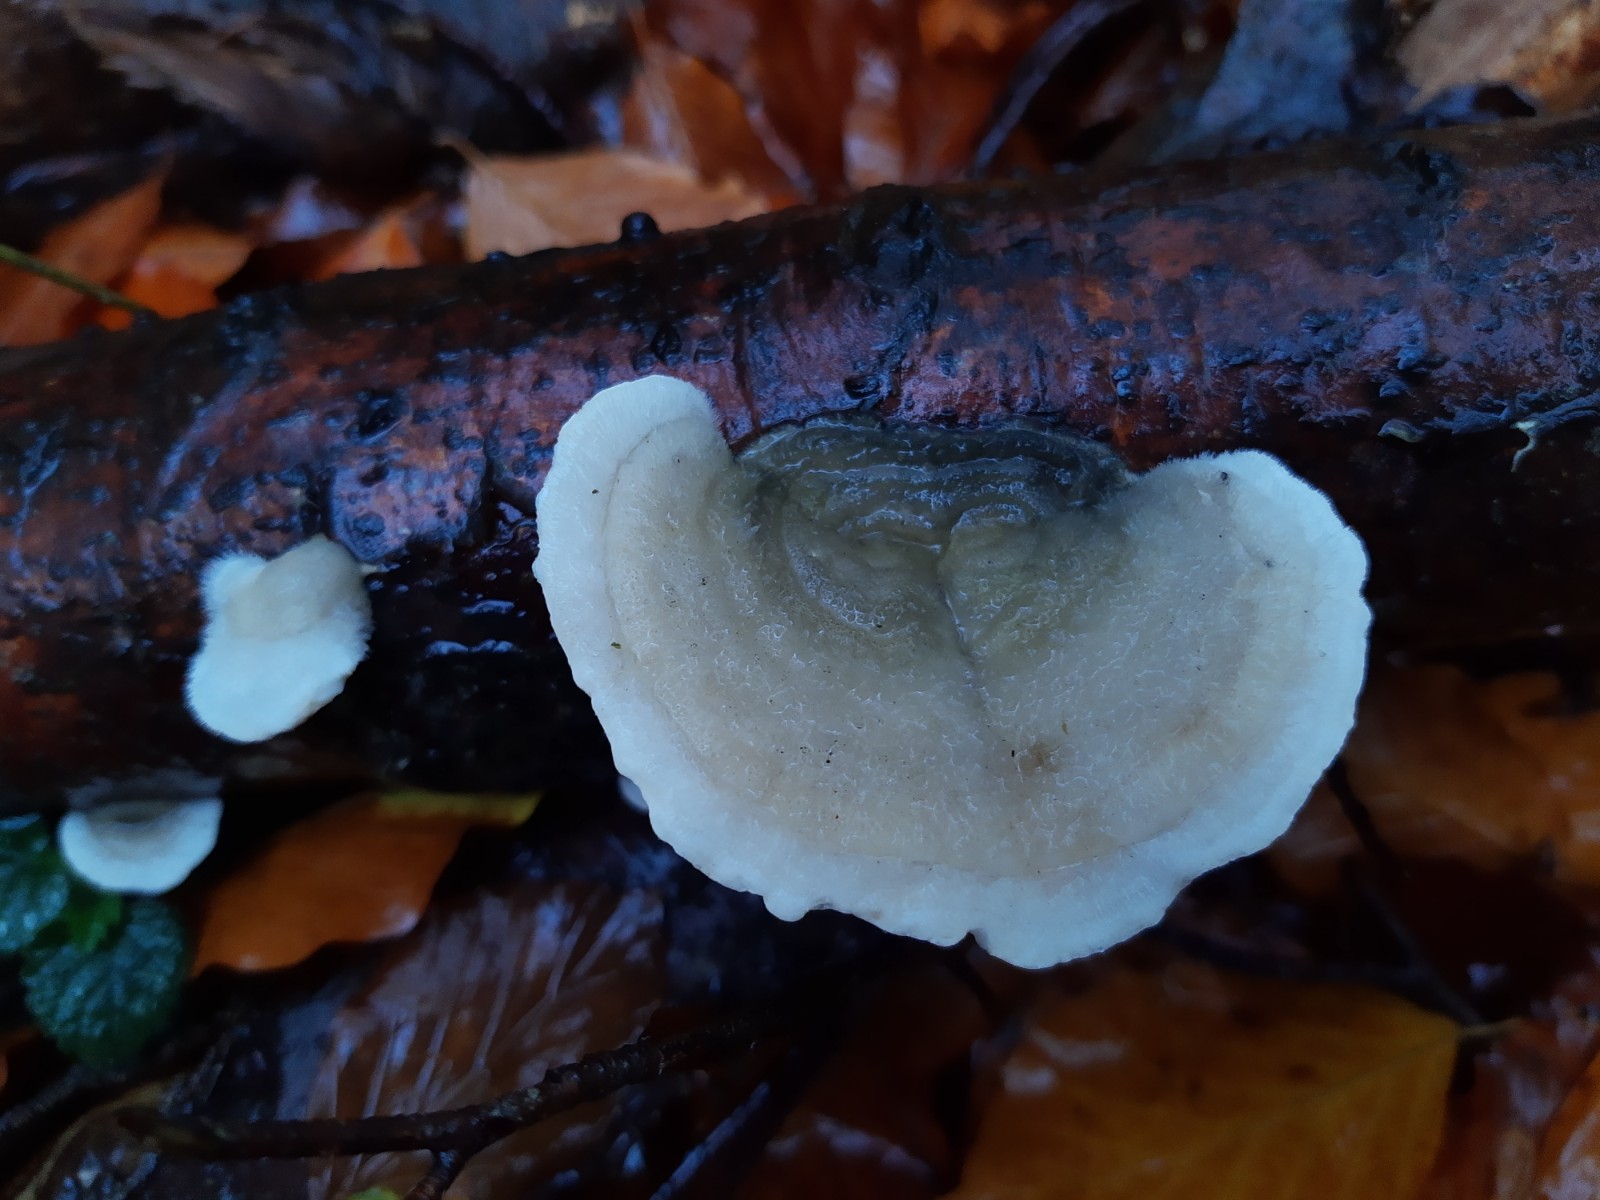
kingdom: Fungi
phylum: Basidiomycota
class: Agaricomycetes
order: Polyporales
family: Polyporaceae
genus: Trametes
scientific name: Trametes hirsuta
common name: håret læderporesvamp
